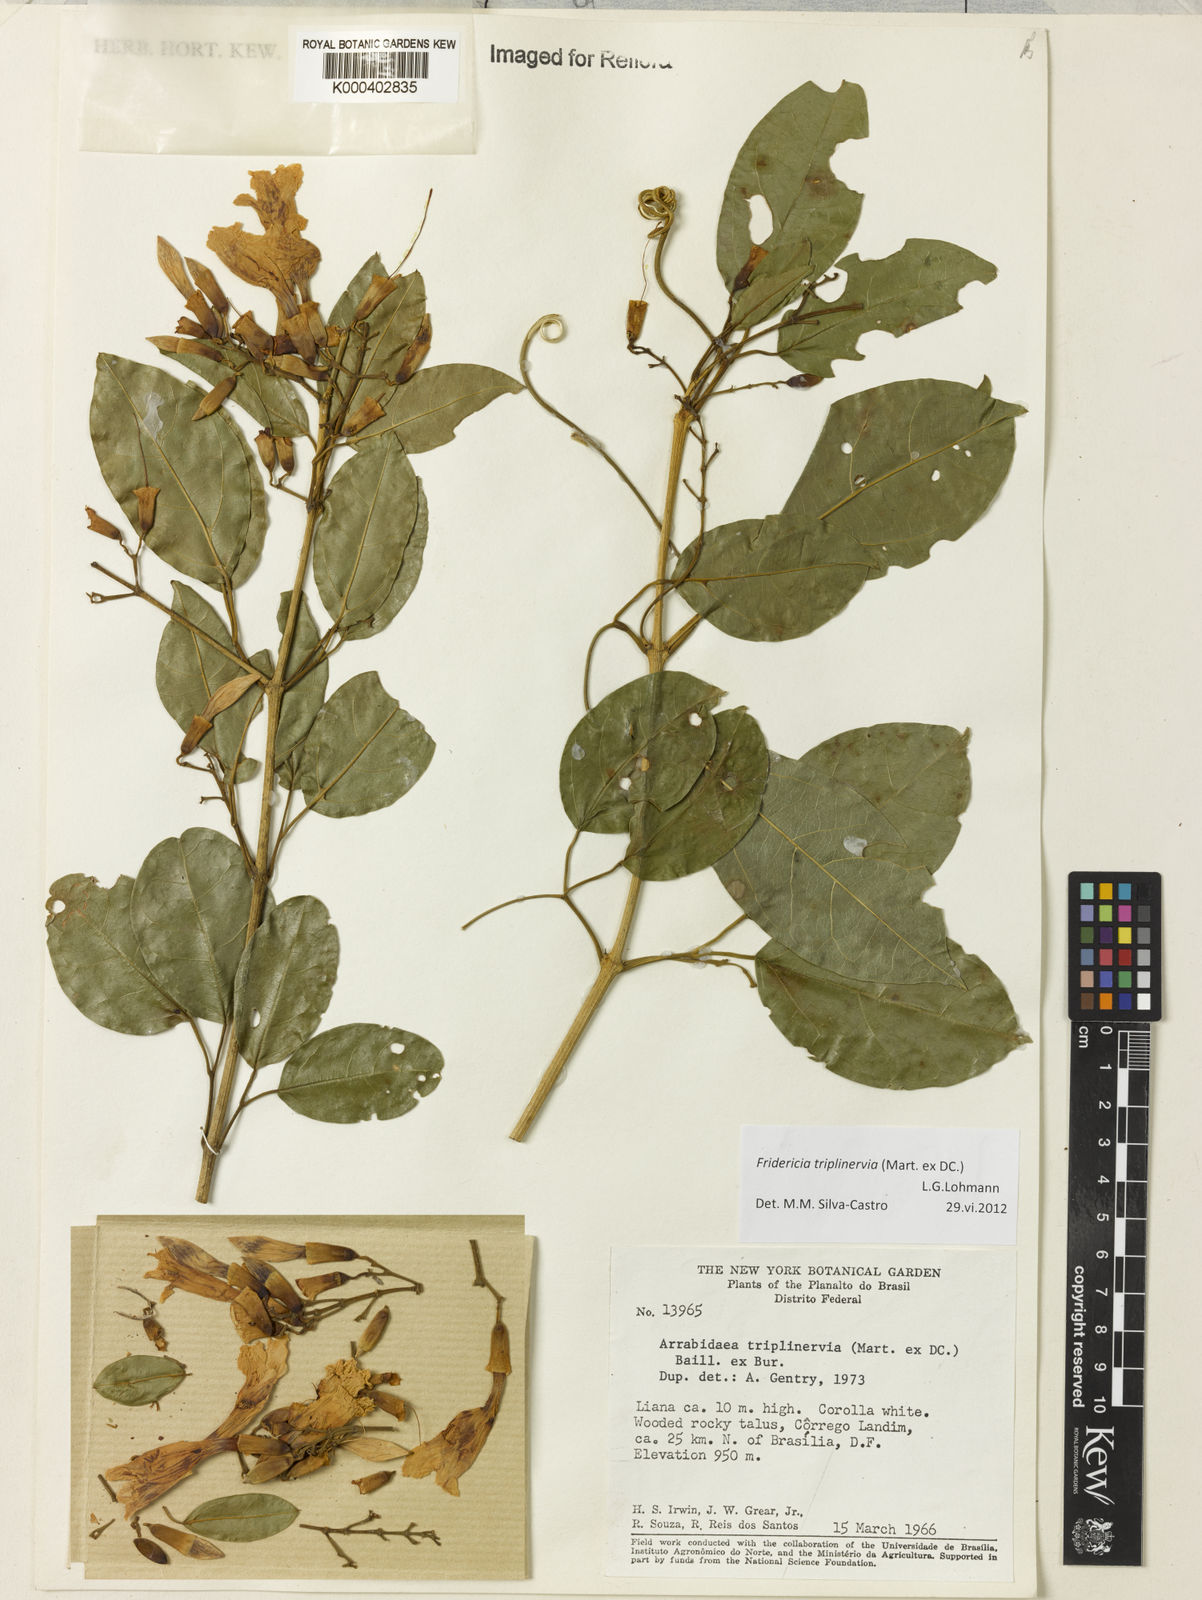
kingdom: Plantae
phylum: Tracheophyta
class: Magnoliopsida
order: Lamiales
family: Bignoniaceae
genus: Fridericia
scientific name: Fridericia triplinervia
